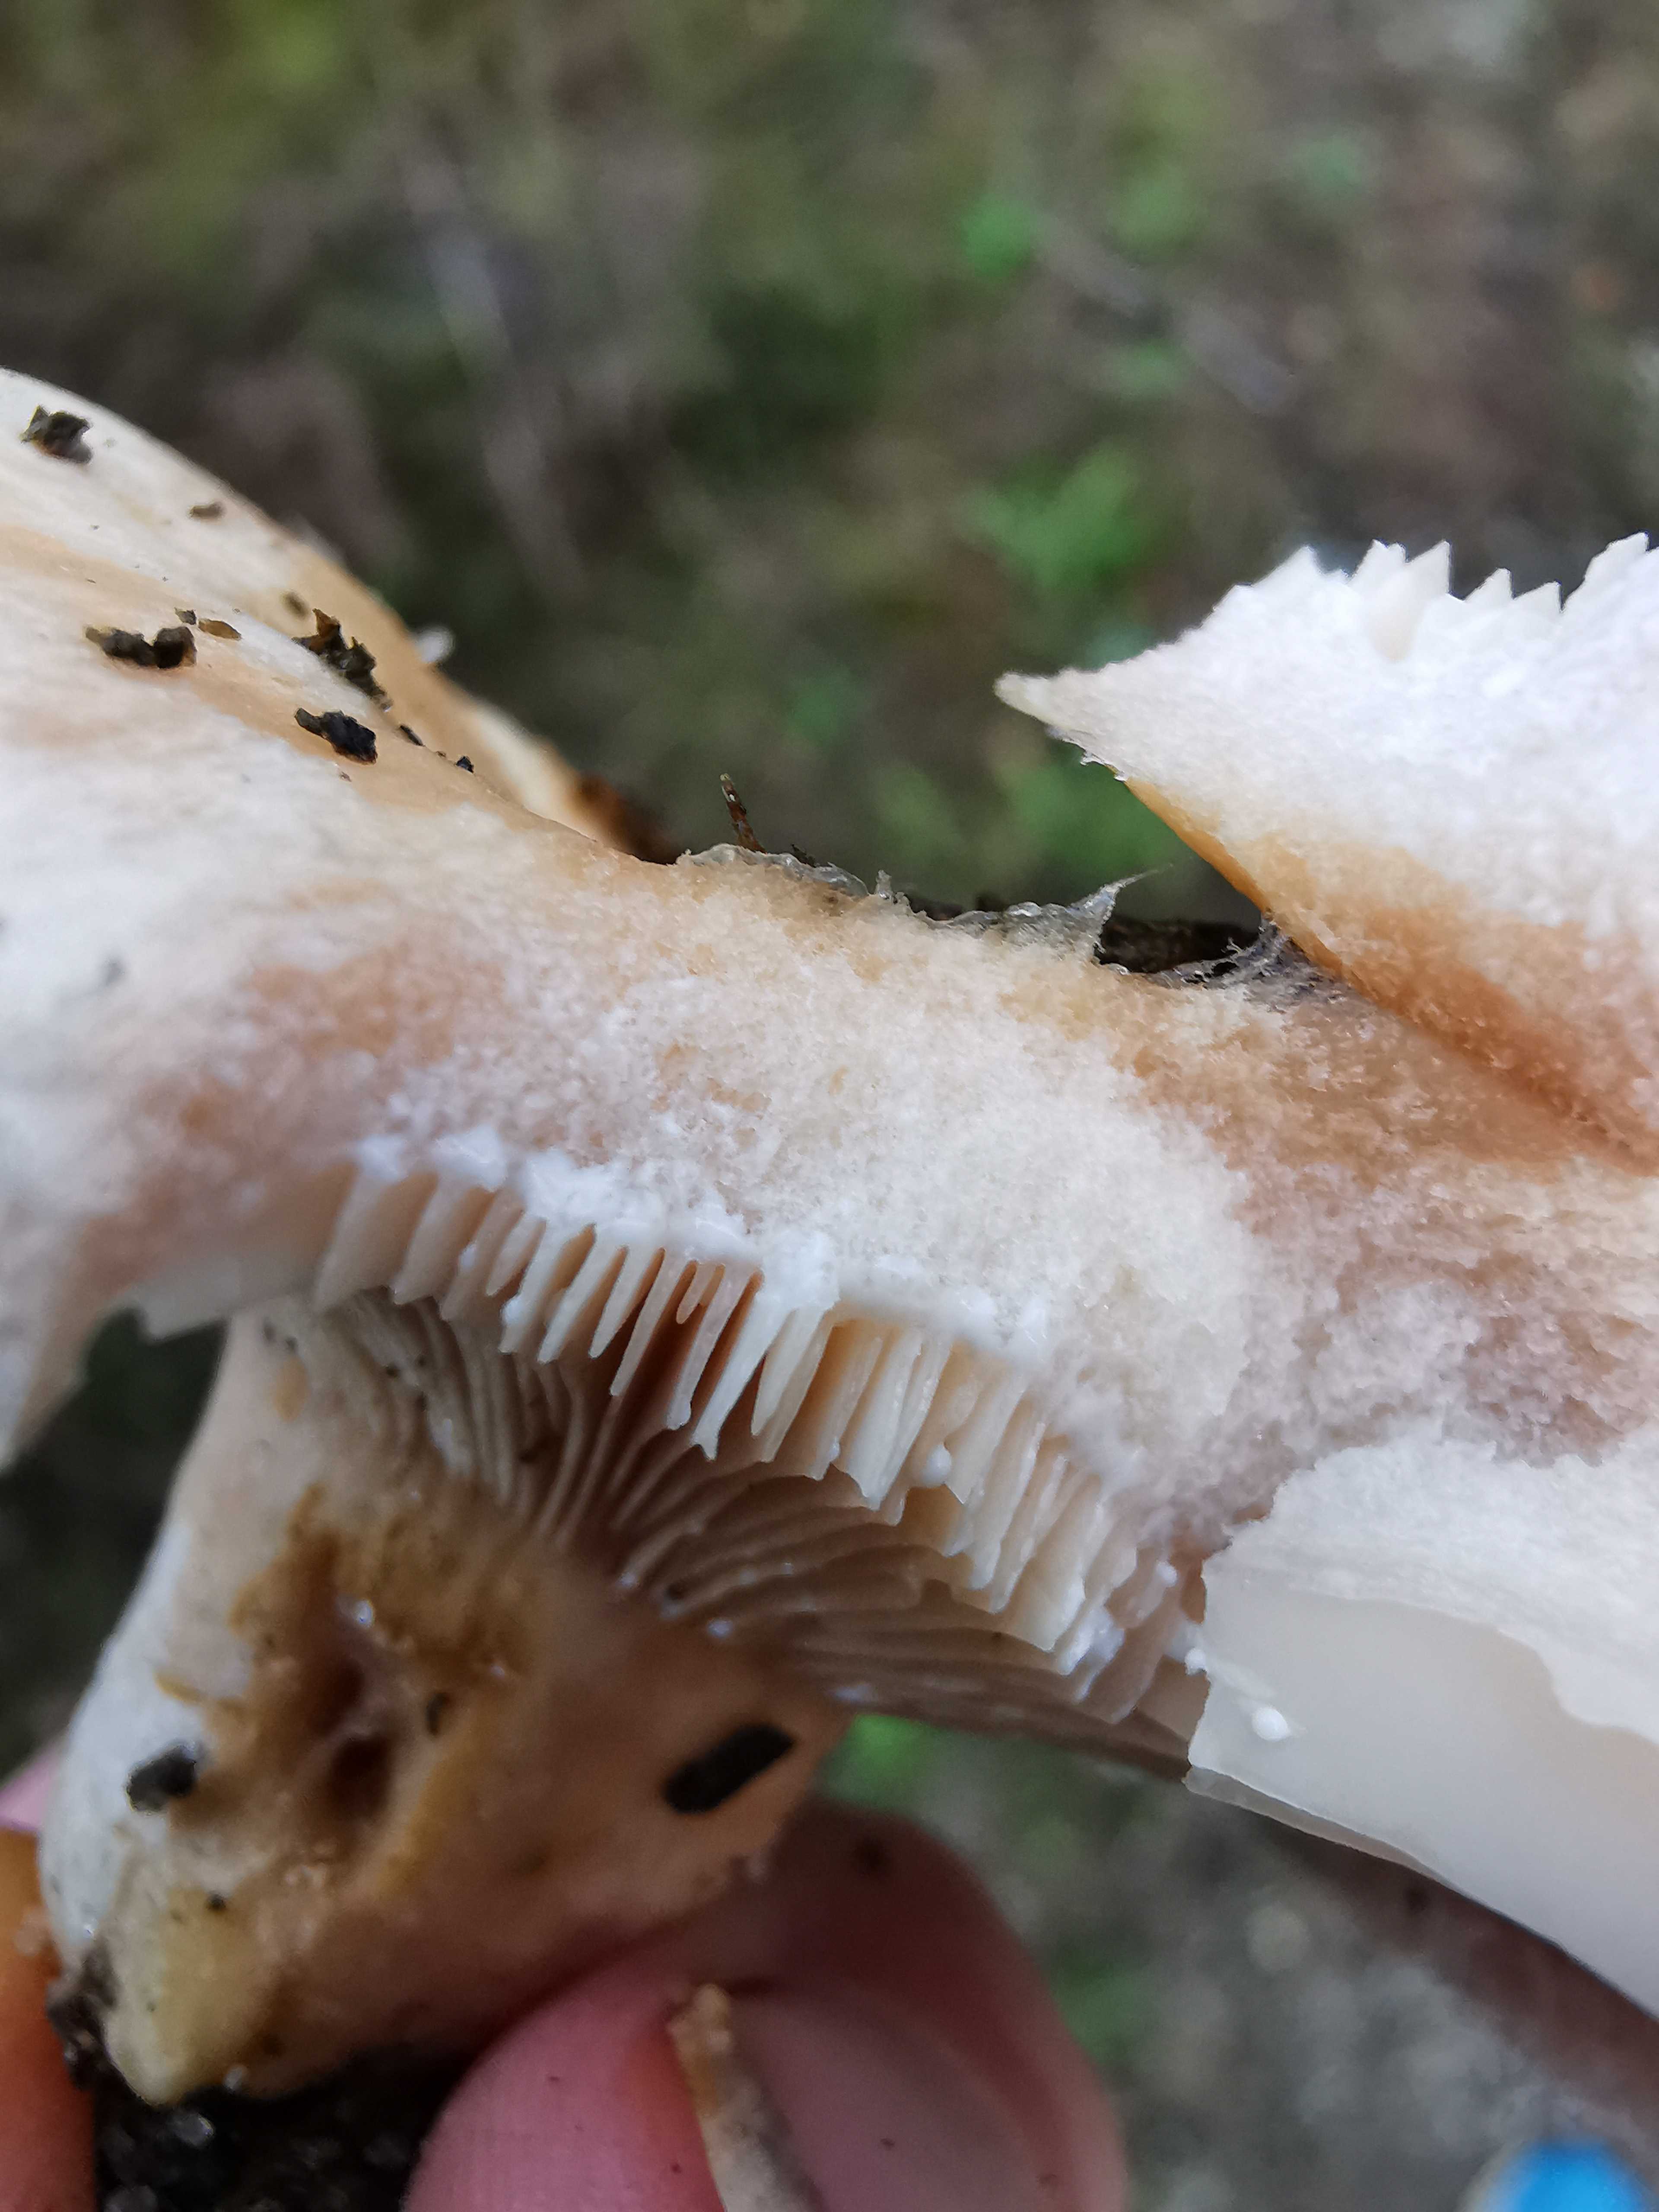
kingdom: Fungi
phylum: Basidiomycota
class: Agaricomycetes
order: Russulales
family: Russulaceae
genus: Lactarius
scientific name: Lactarius pubescens
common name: dunet mælkehat
